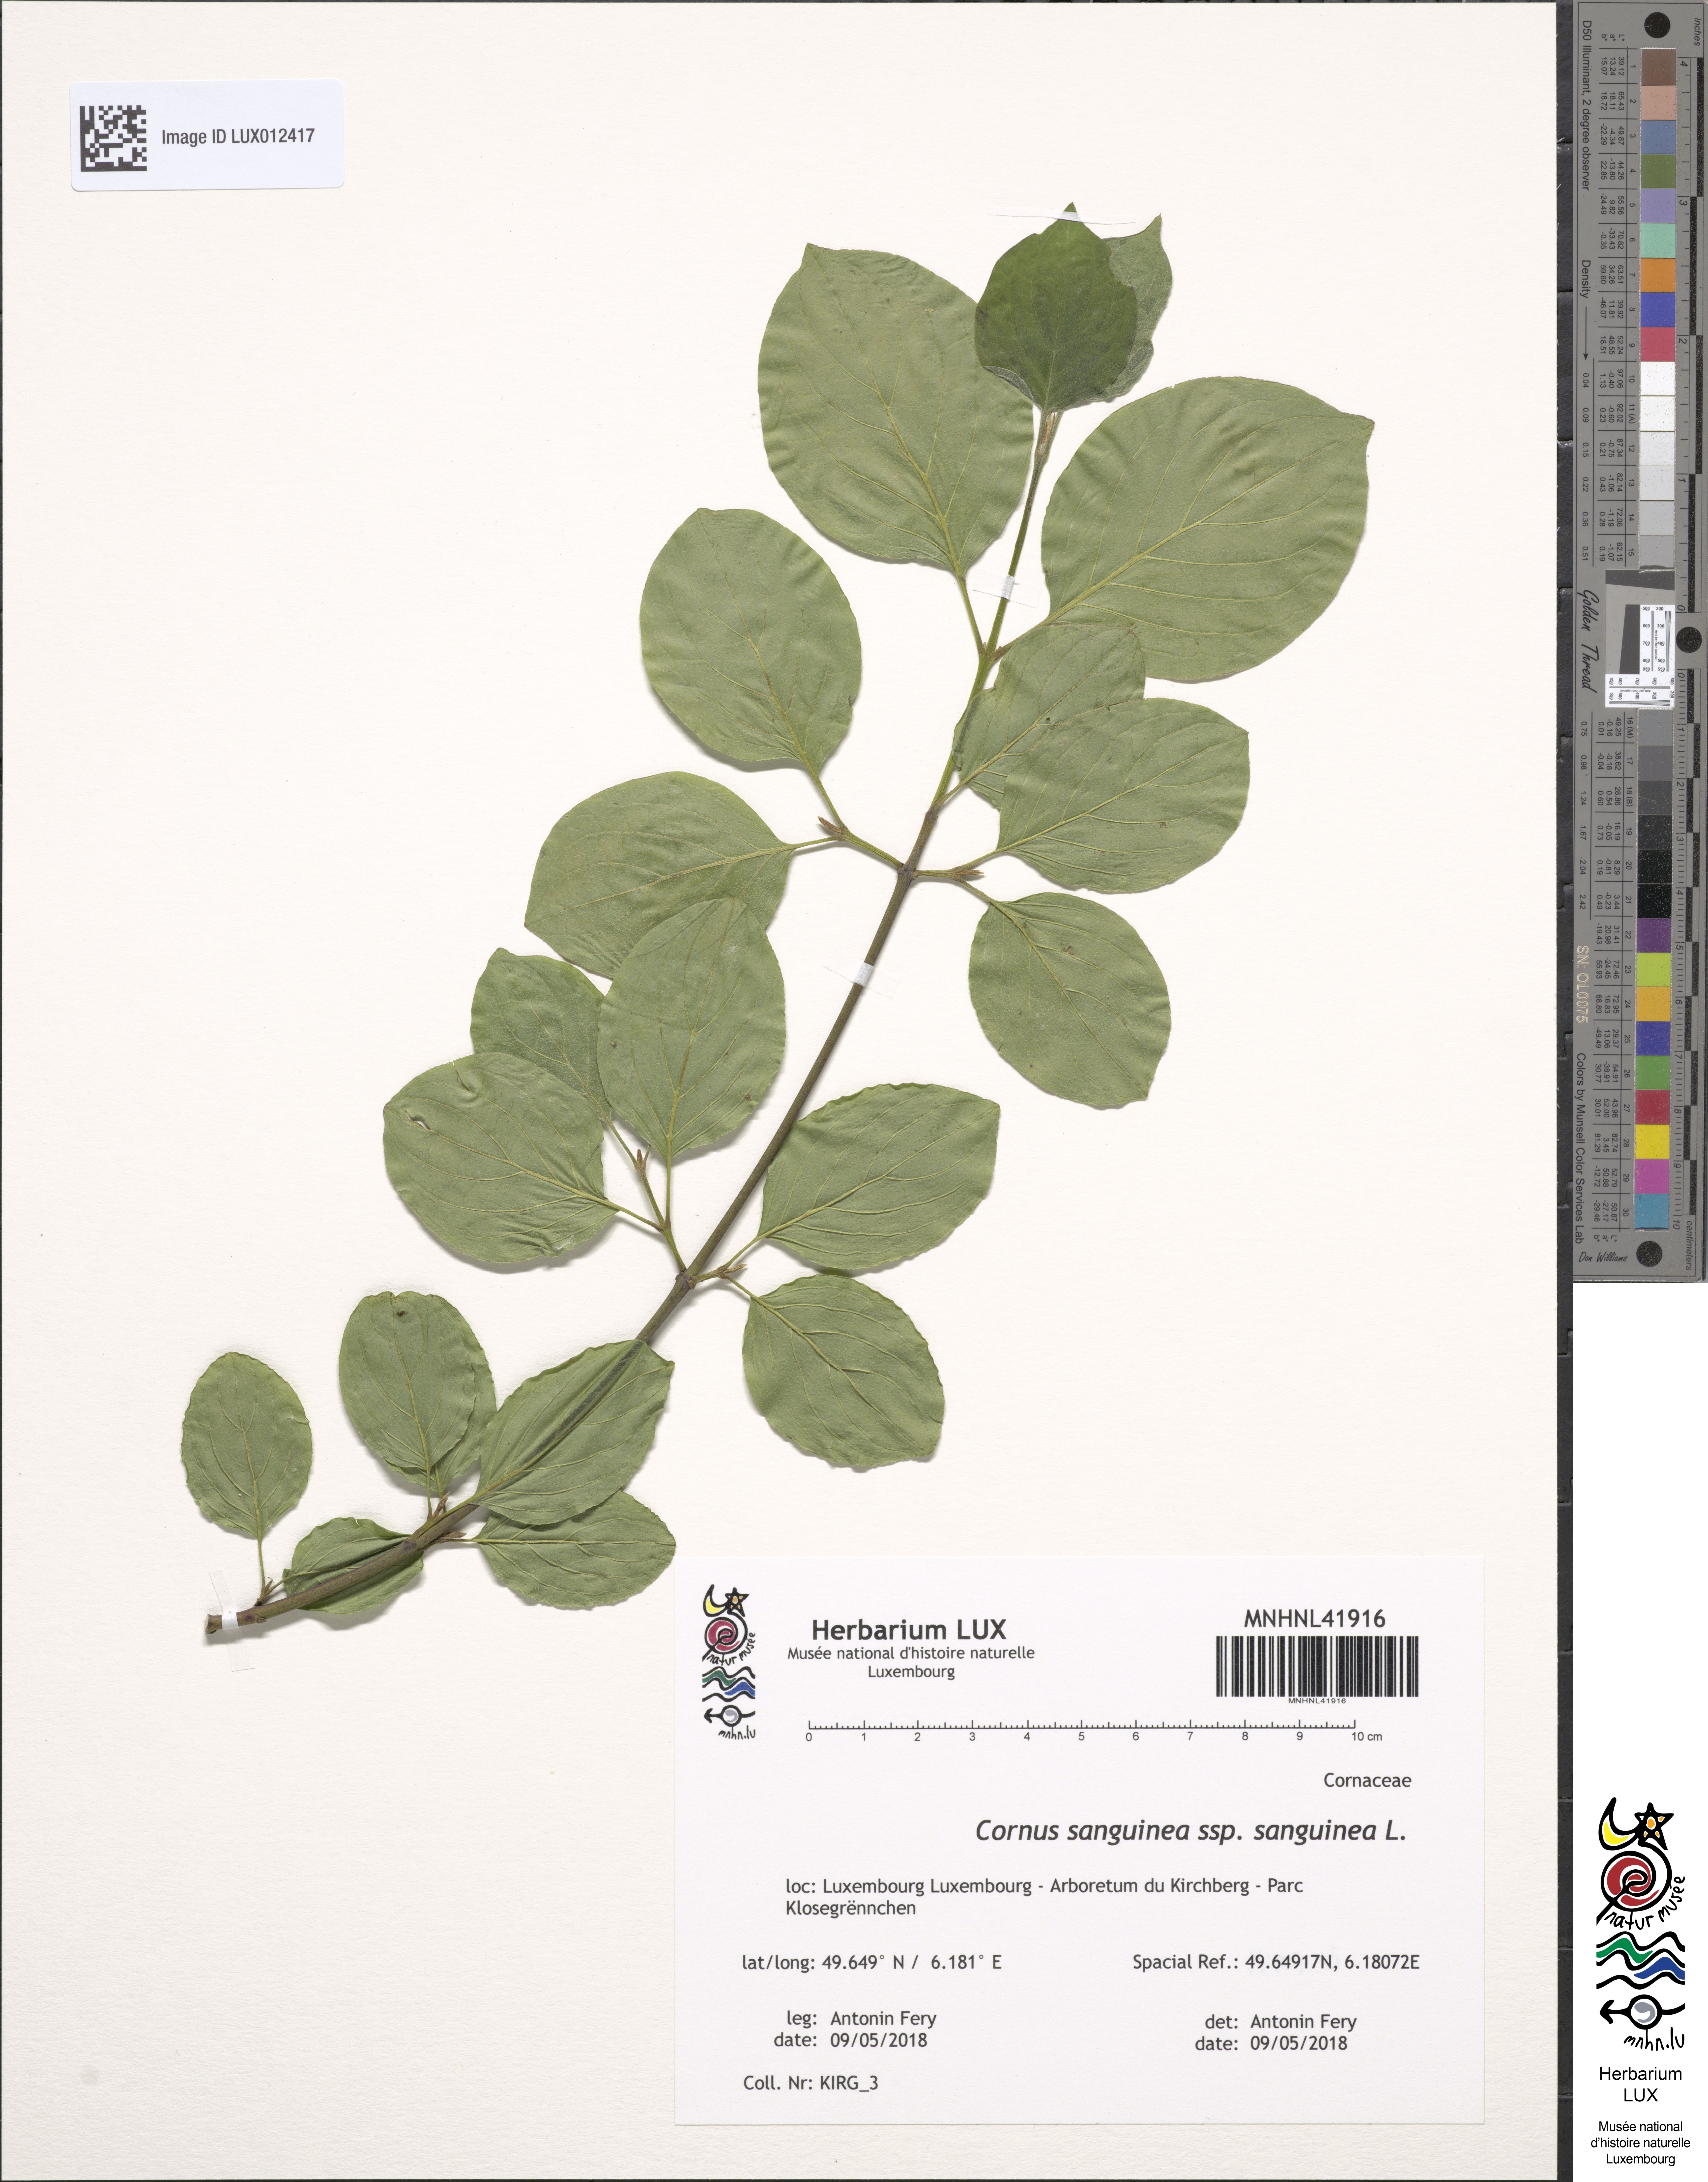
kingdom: Plantae
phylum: Tracheophyta
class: Magnoliopsida
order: Cornales
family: Cornaceae
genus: Cornus
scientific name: Cornus sanguinea
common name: Dogwood
